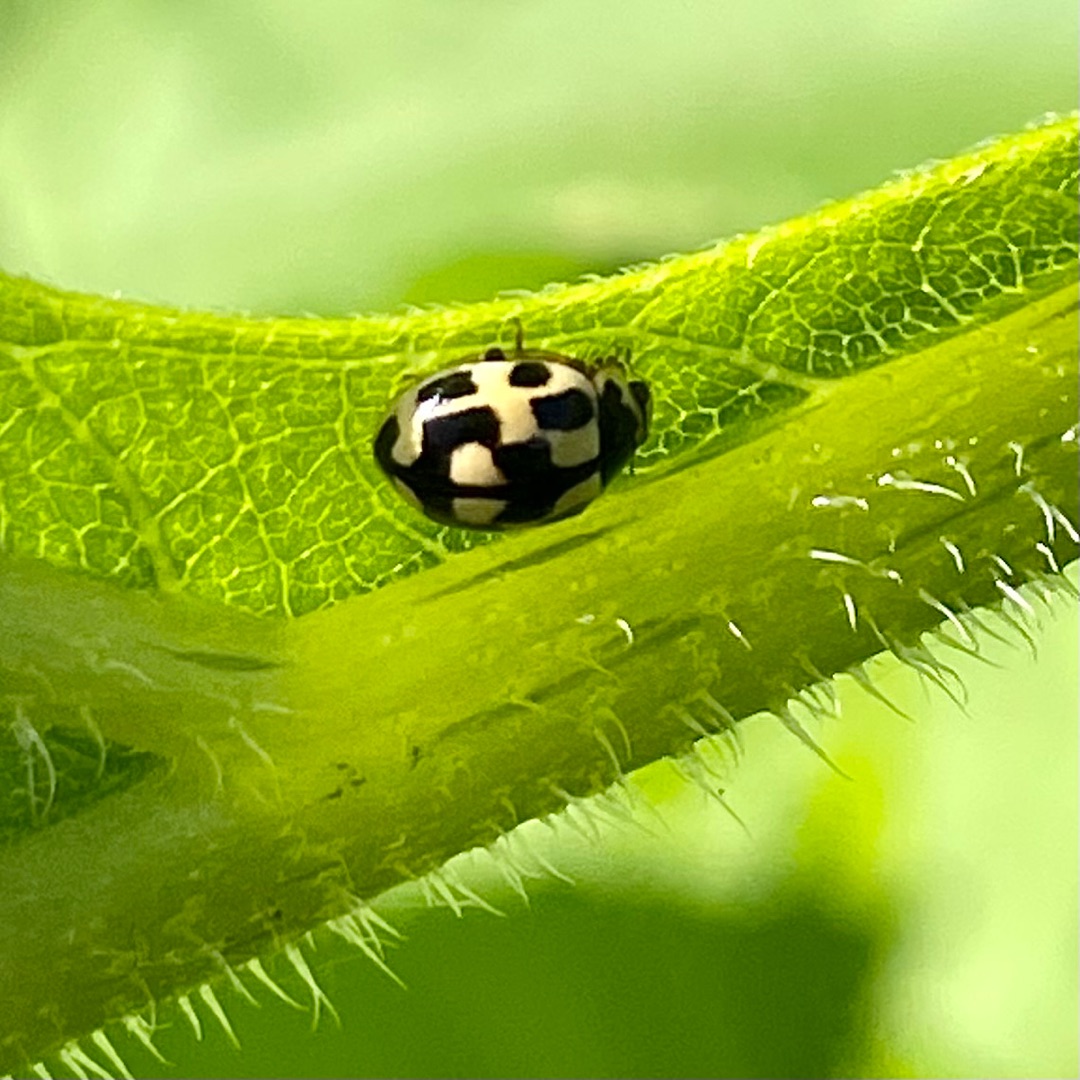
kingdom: Animalia
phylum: Arthropoda
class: Insecta
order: Coleoptera
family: Coccinellidae
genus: Propylaea
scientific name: Propylaea quatuordecimpunctata
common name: Skakbræt
